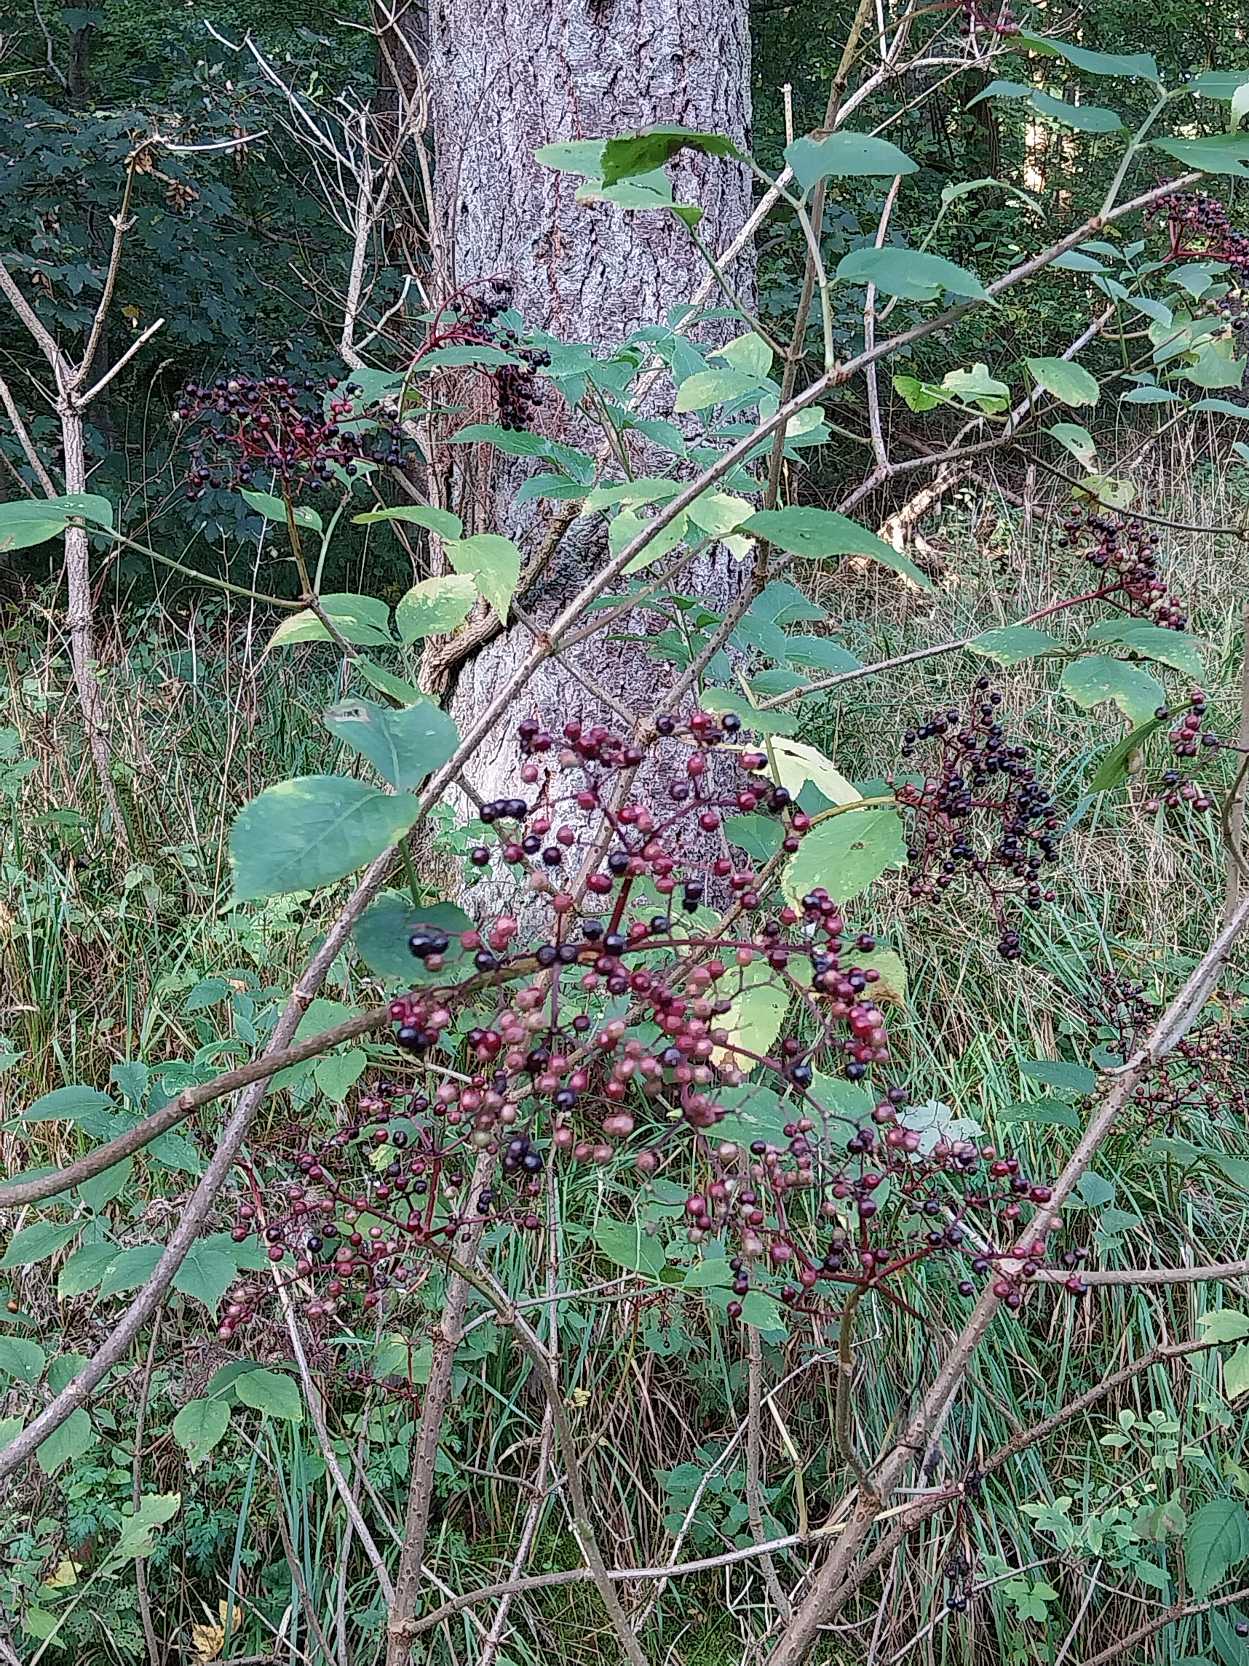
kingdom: Plantae
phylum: Tracheophyta
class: Magnoliopsida
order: Dipsacales
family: Viburnaceae
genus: Sambucus
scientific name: Sambucus nigra
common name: Almindelig hyld
